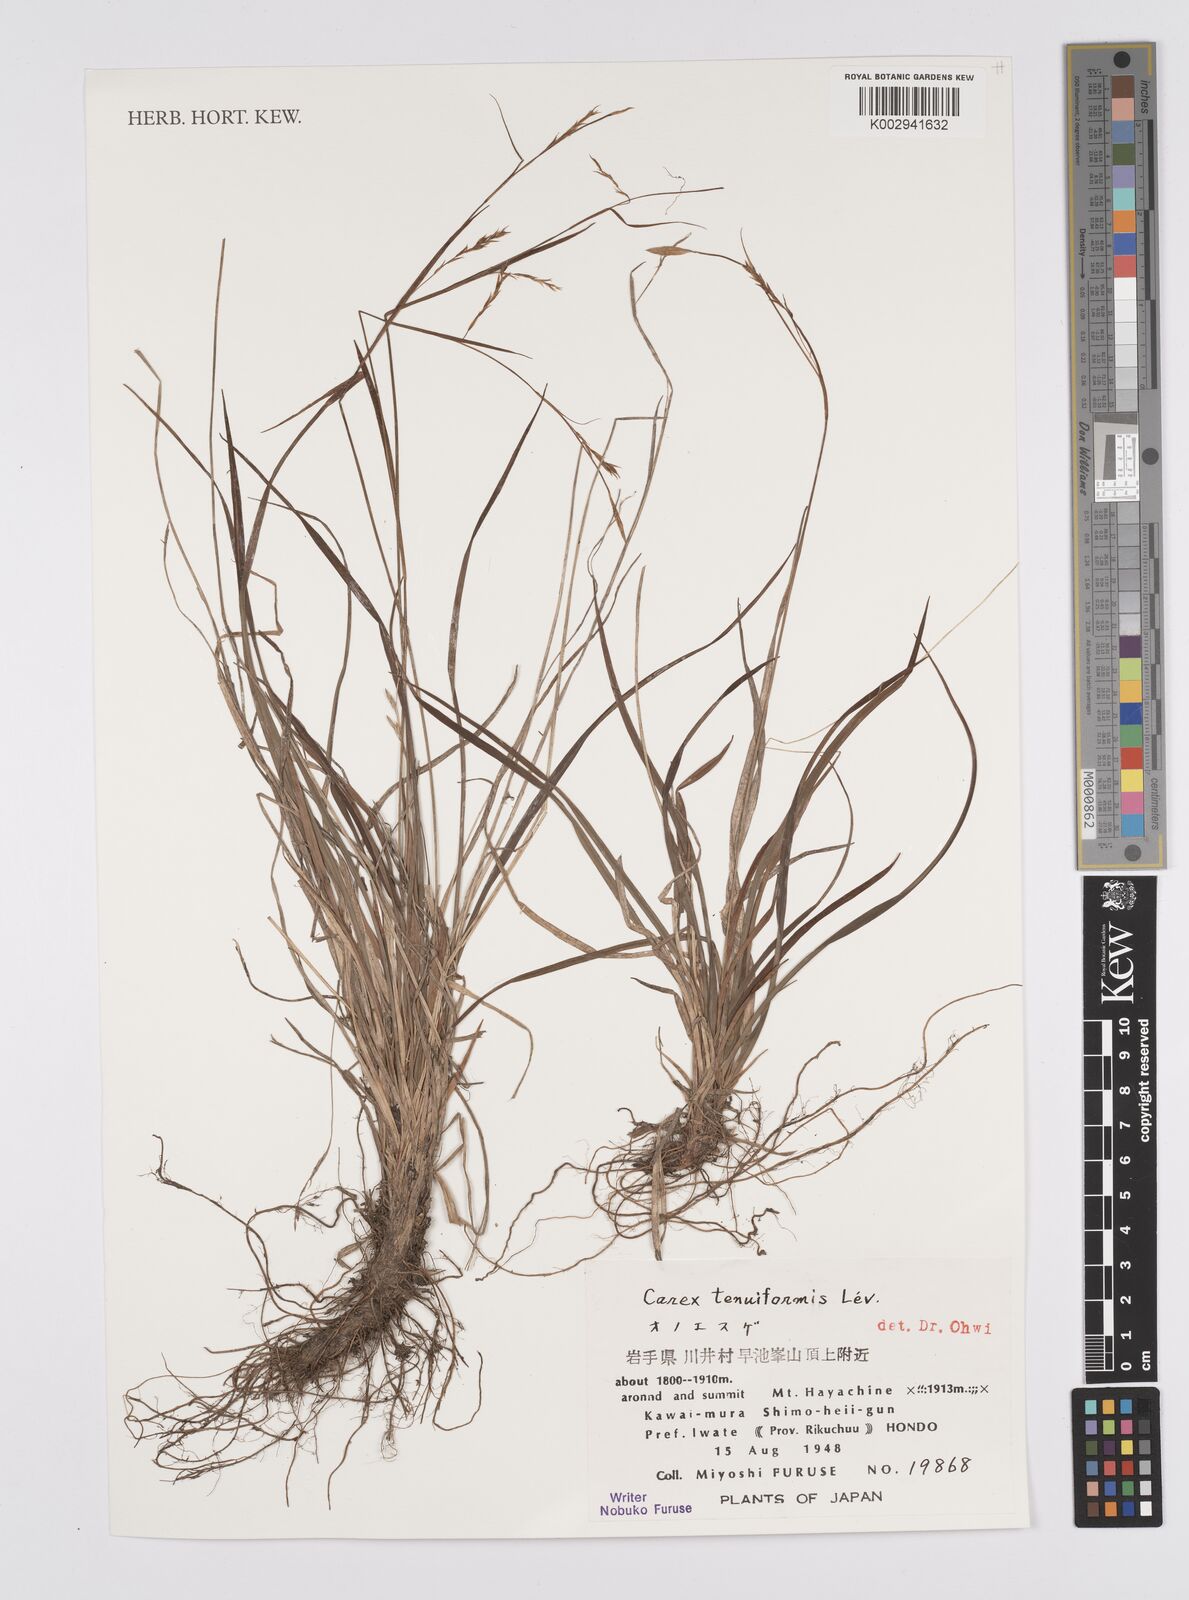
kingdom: Plantae
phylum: Tracheophyta
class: Liliopsida
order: Poales
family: Cyperaceae
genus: Carex
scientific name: Carex tenuiformis
